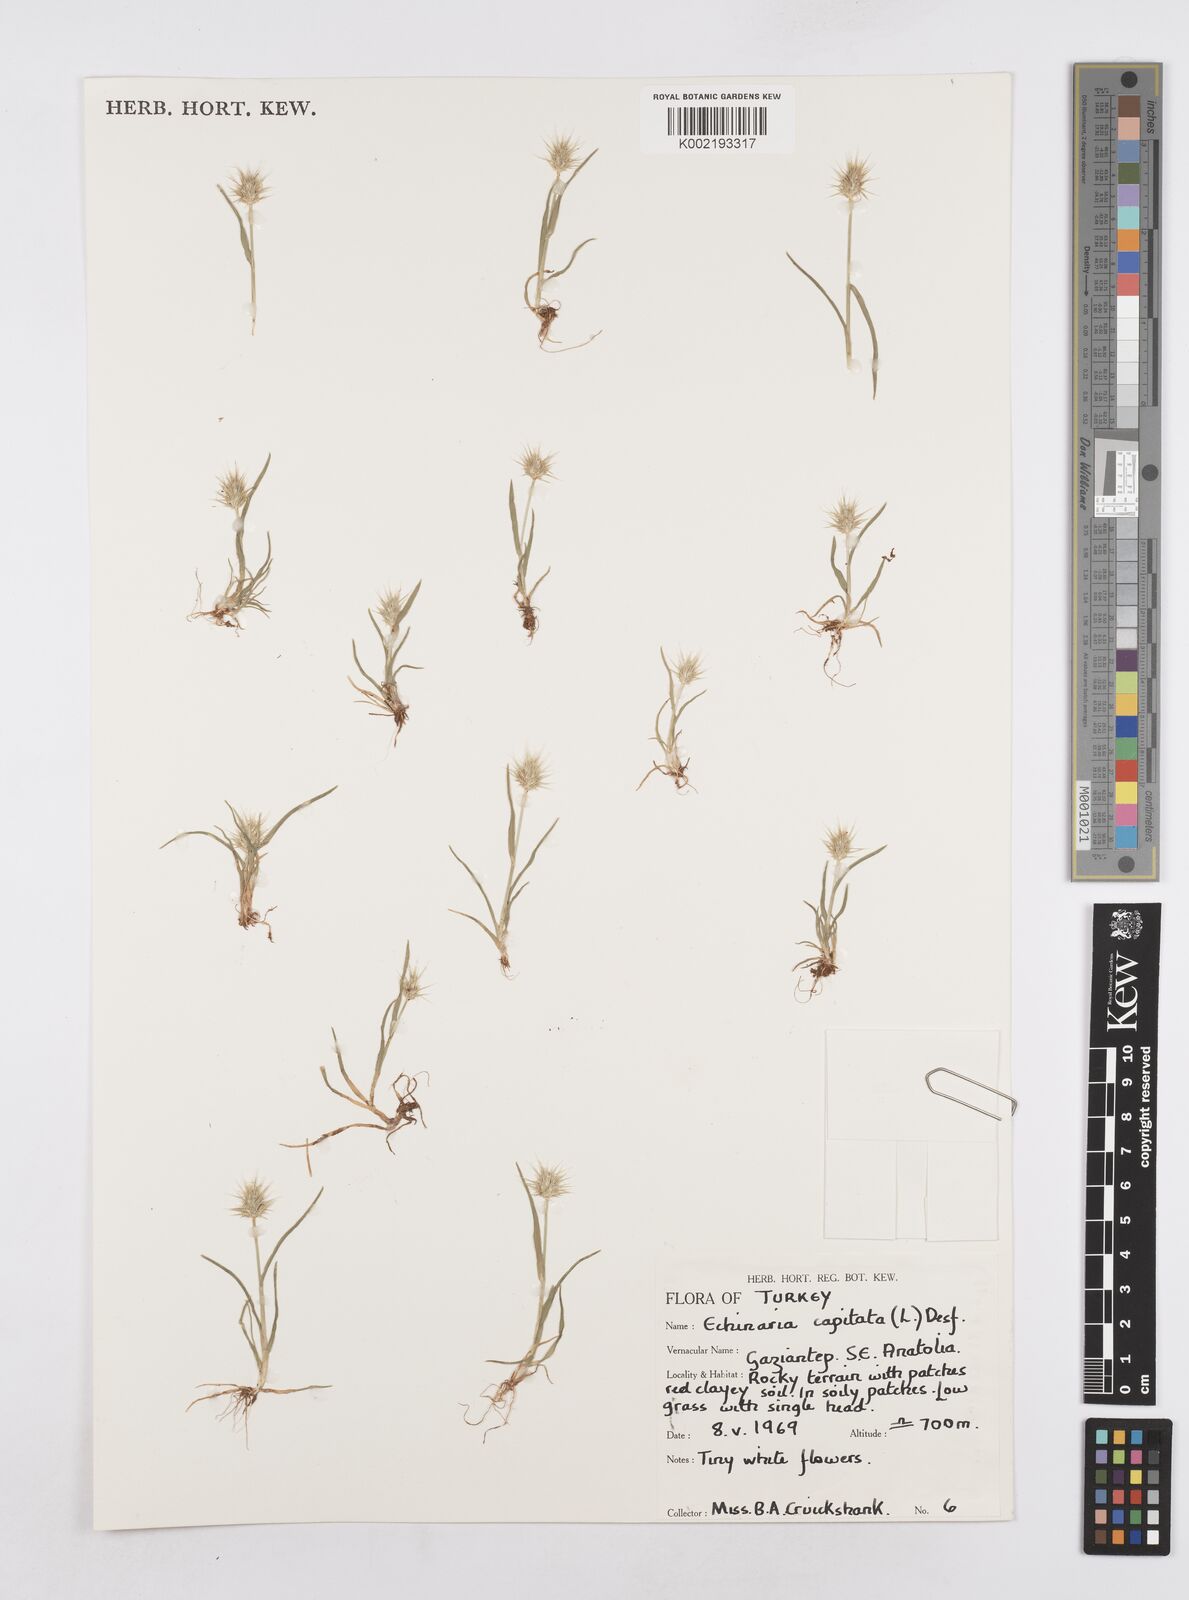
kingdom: Plantae
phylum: Tracheophyta
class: Liliopsida
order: Poales
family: Poaceae
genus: Echinaria
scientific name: Echinaria capitata
